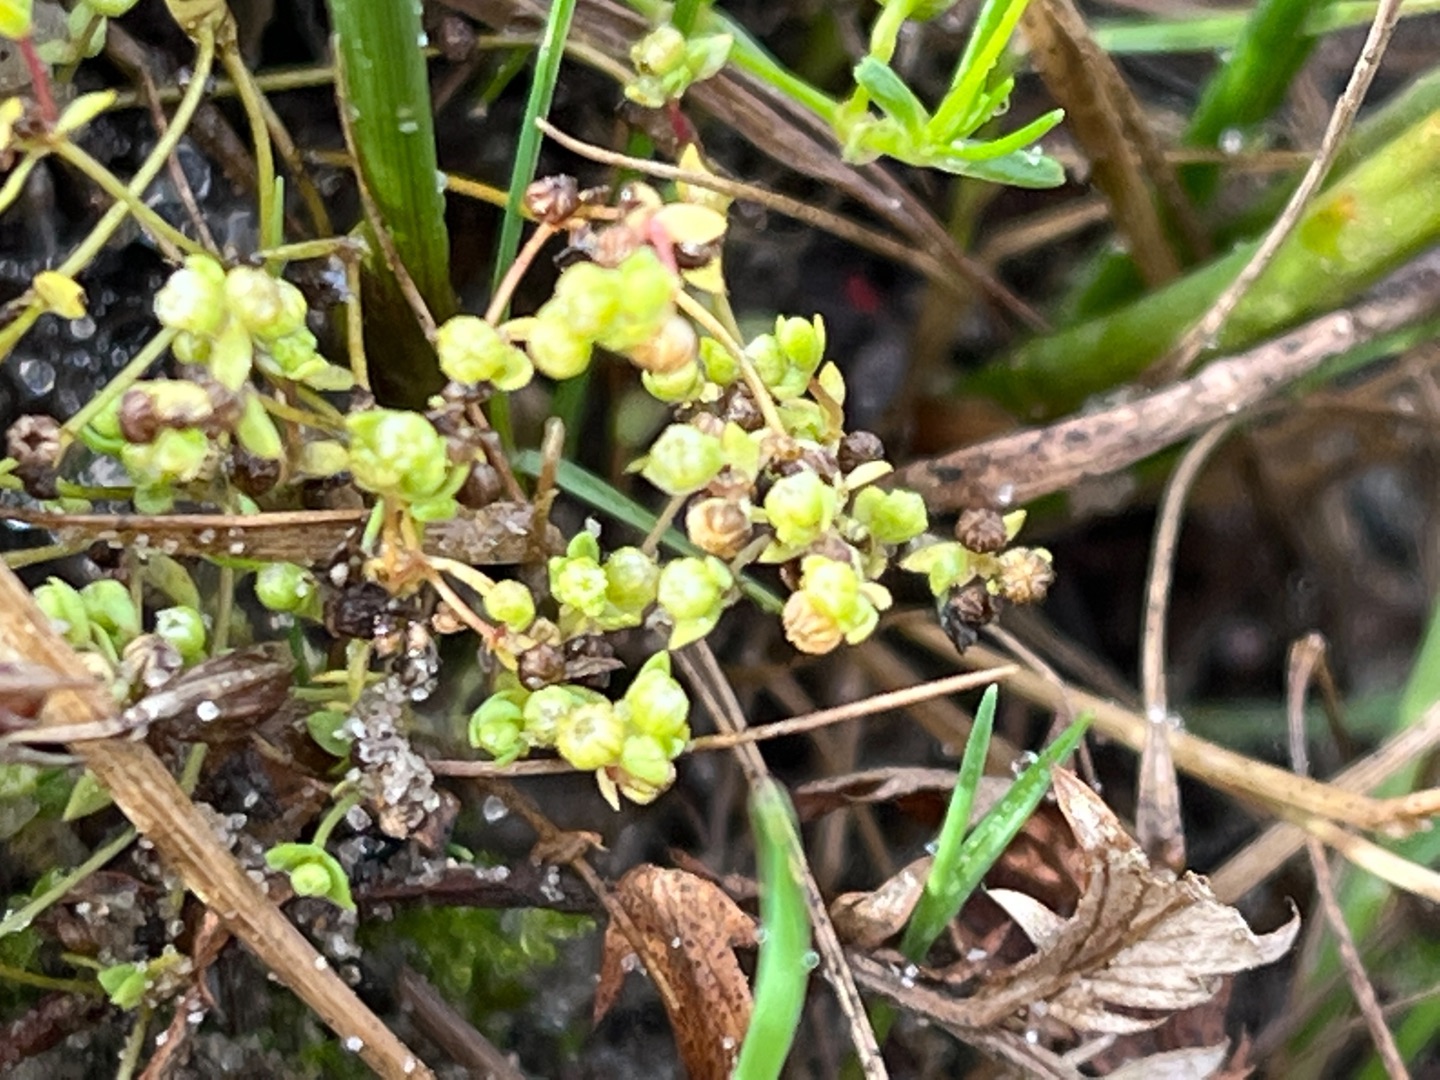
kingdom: Plantae
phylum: Tracheophyta
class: Magnoliopsida
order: Malpighiales
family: Linaceae
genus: Radiola
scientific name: Radiola linoides
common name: Tusindfrø
